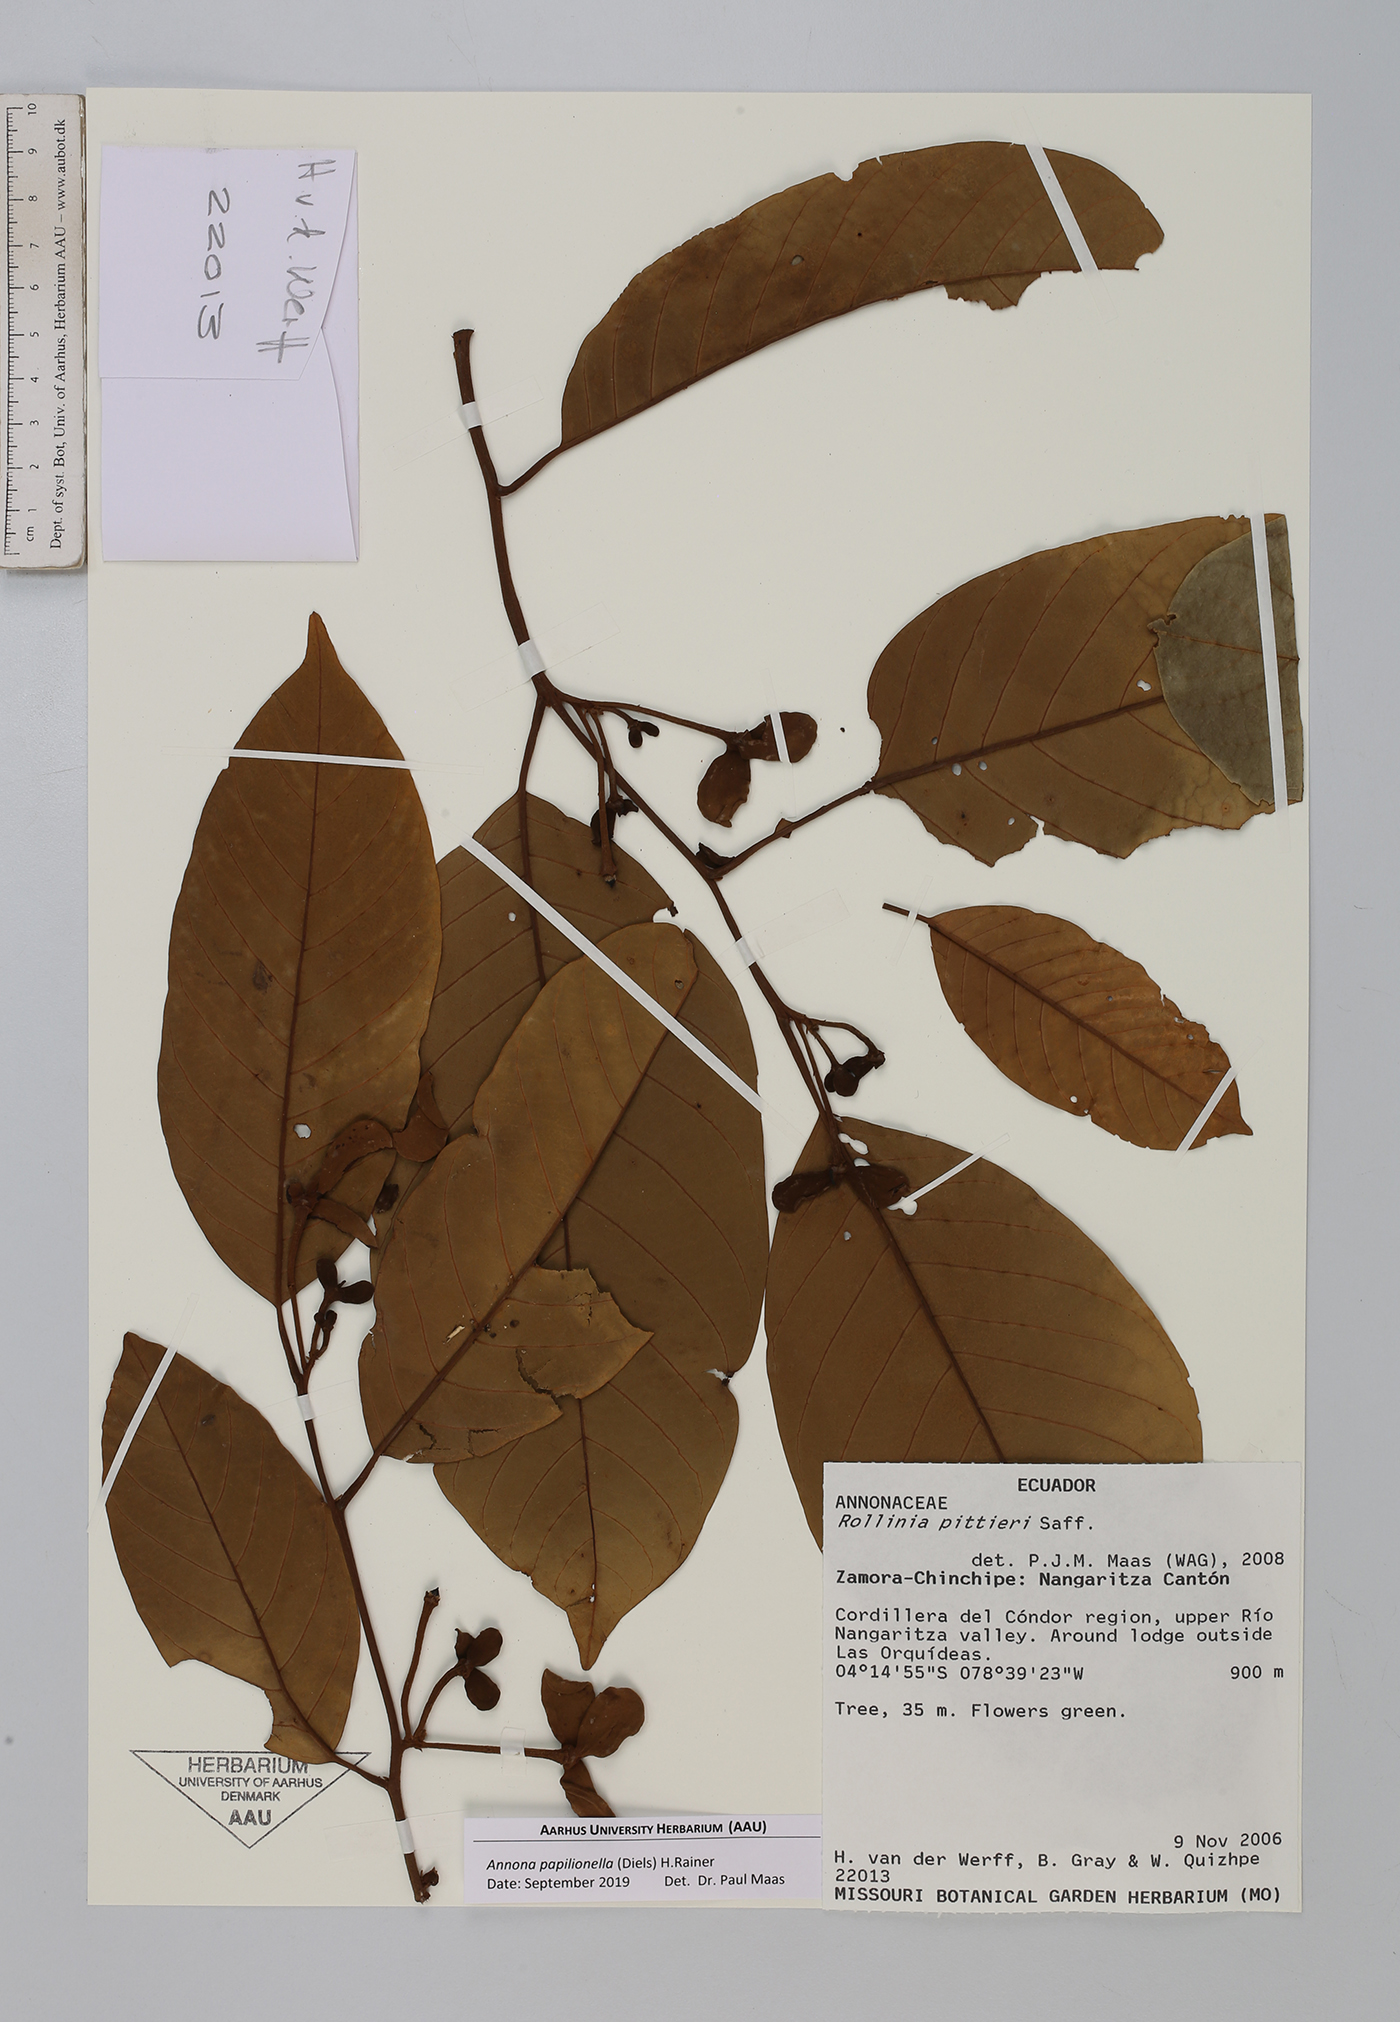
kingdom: Plantae
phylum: Tracheophyta
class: Magnoliopsida
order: Magnoliales
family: Annonaceae
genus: Annona
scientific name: Annona papilionella
